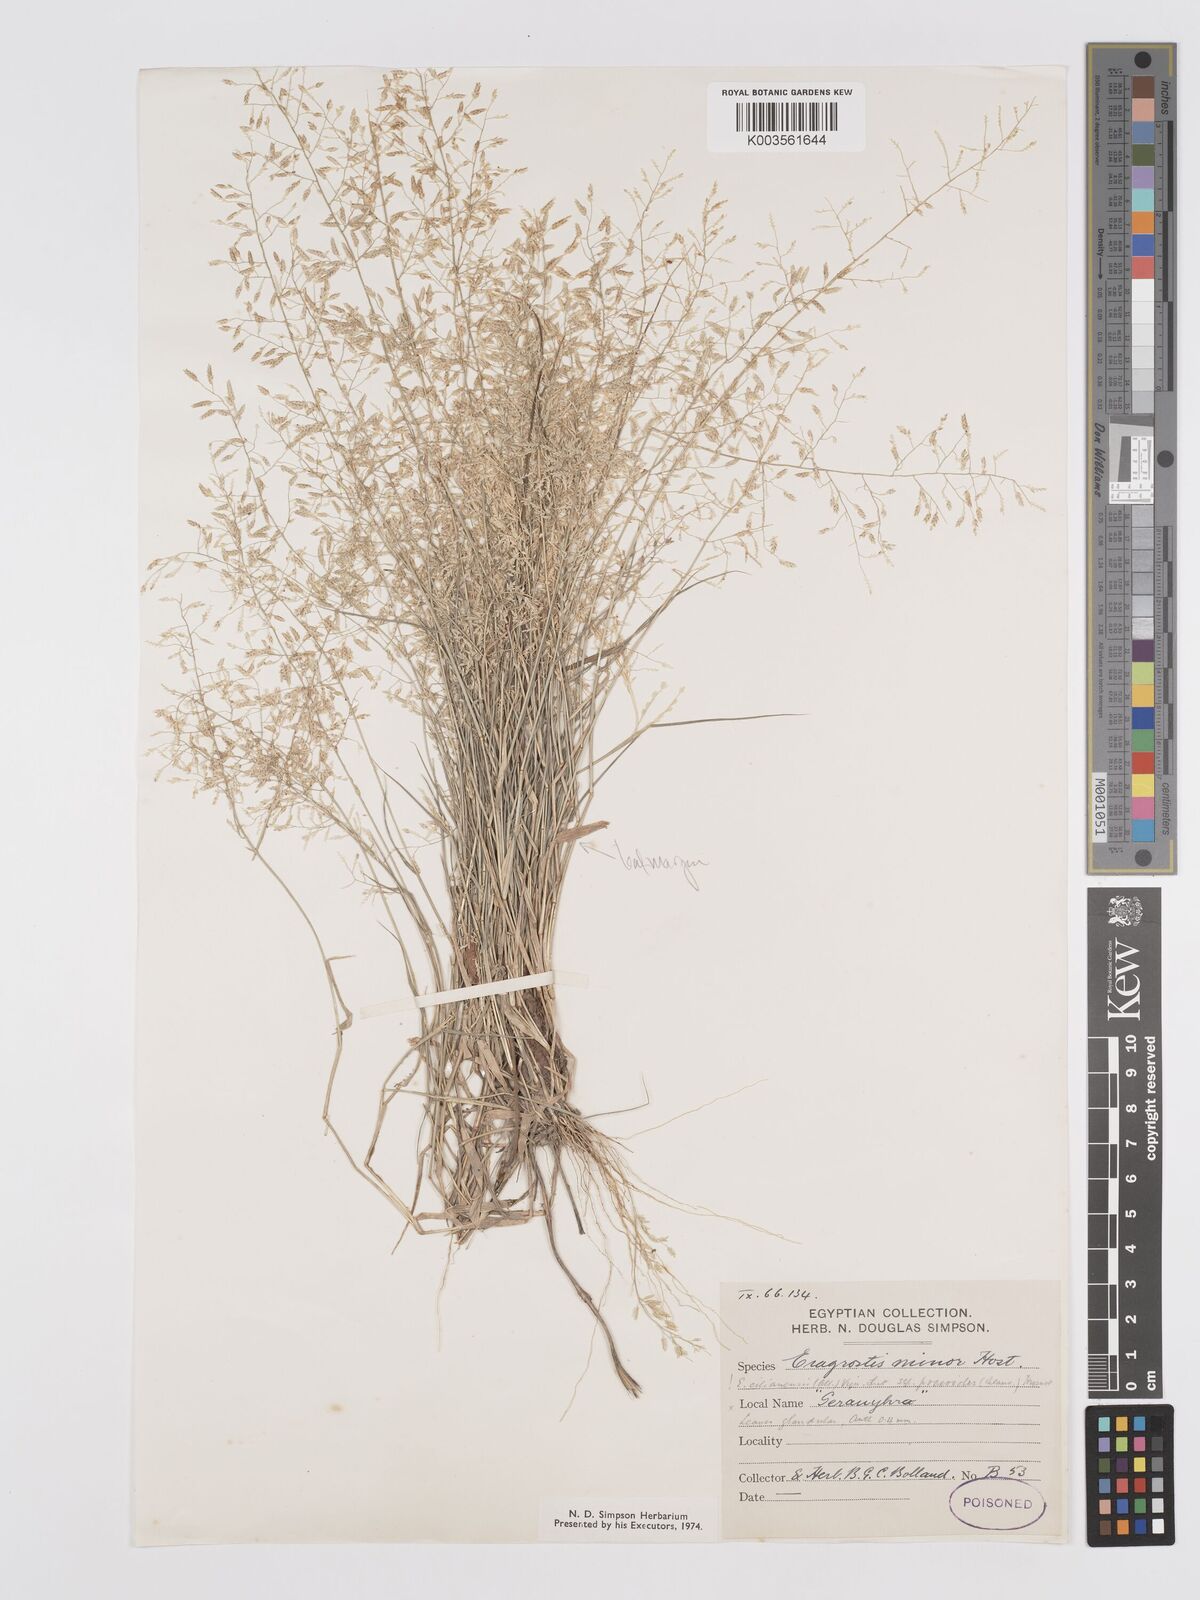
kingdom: Plantae
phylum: Tracheophyta
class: Liliopsida
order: Poales
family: Poaceae
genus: Eragrostis
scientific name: Eragrostis minor
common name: Small love-grass
